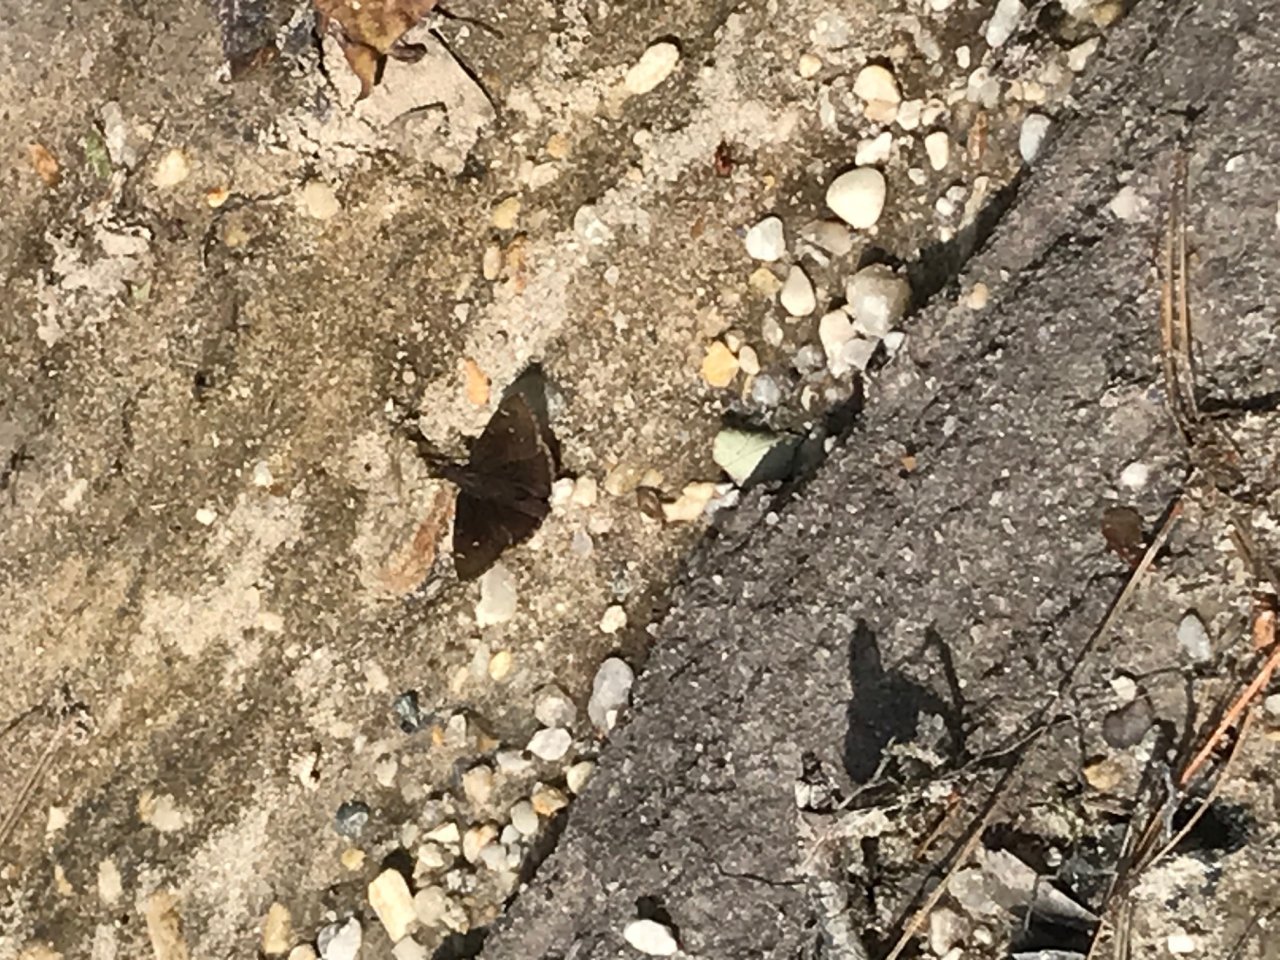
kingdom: Animalia
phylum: Arthropoda
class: Insecta
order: Lepidoptera
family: Hesperiidae
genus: Autochton
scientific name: Autochton
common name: Northern Cloudywing
